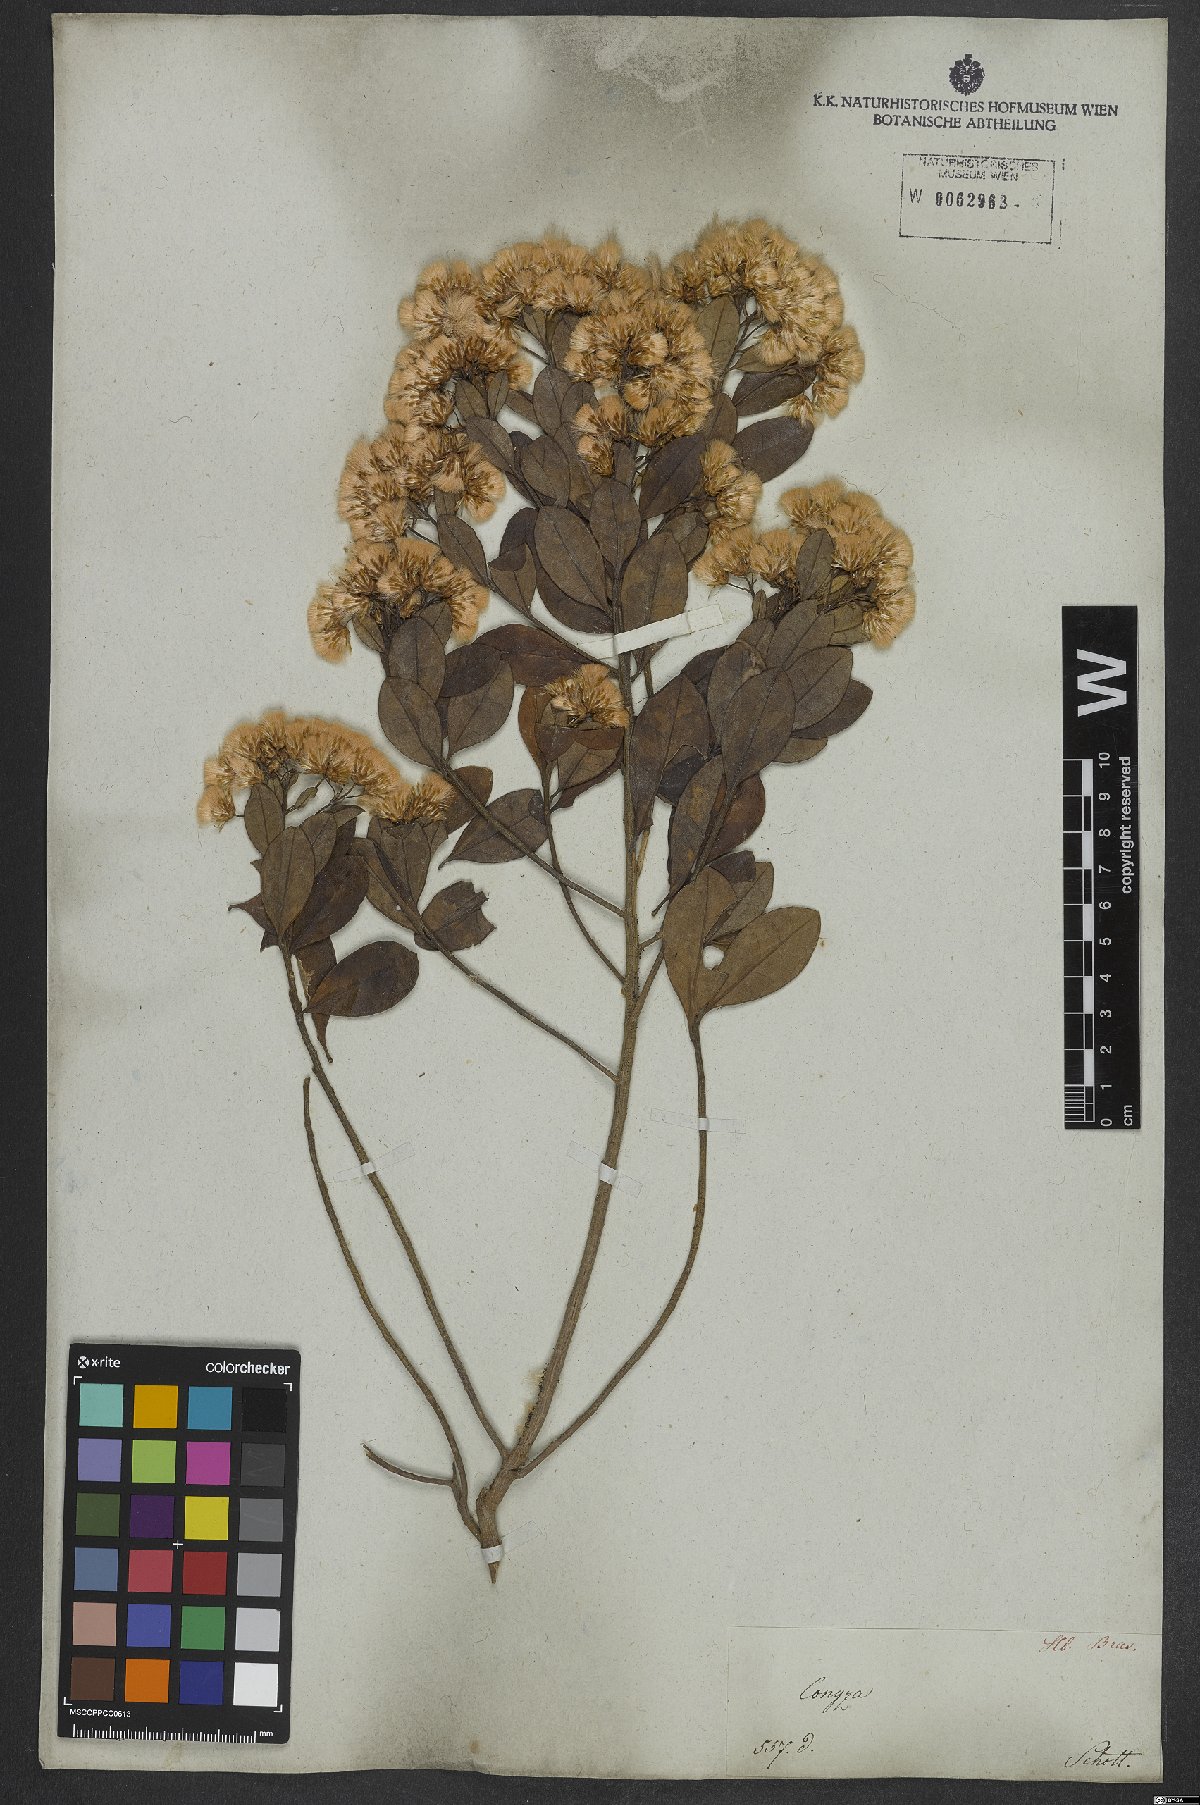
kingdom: Plantae
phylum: Tracheophyta
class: Magnoliopsida
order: Asterales
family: Asteraceae
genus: Conyza
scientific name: Conyza
